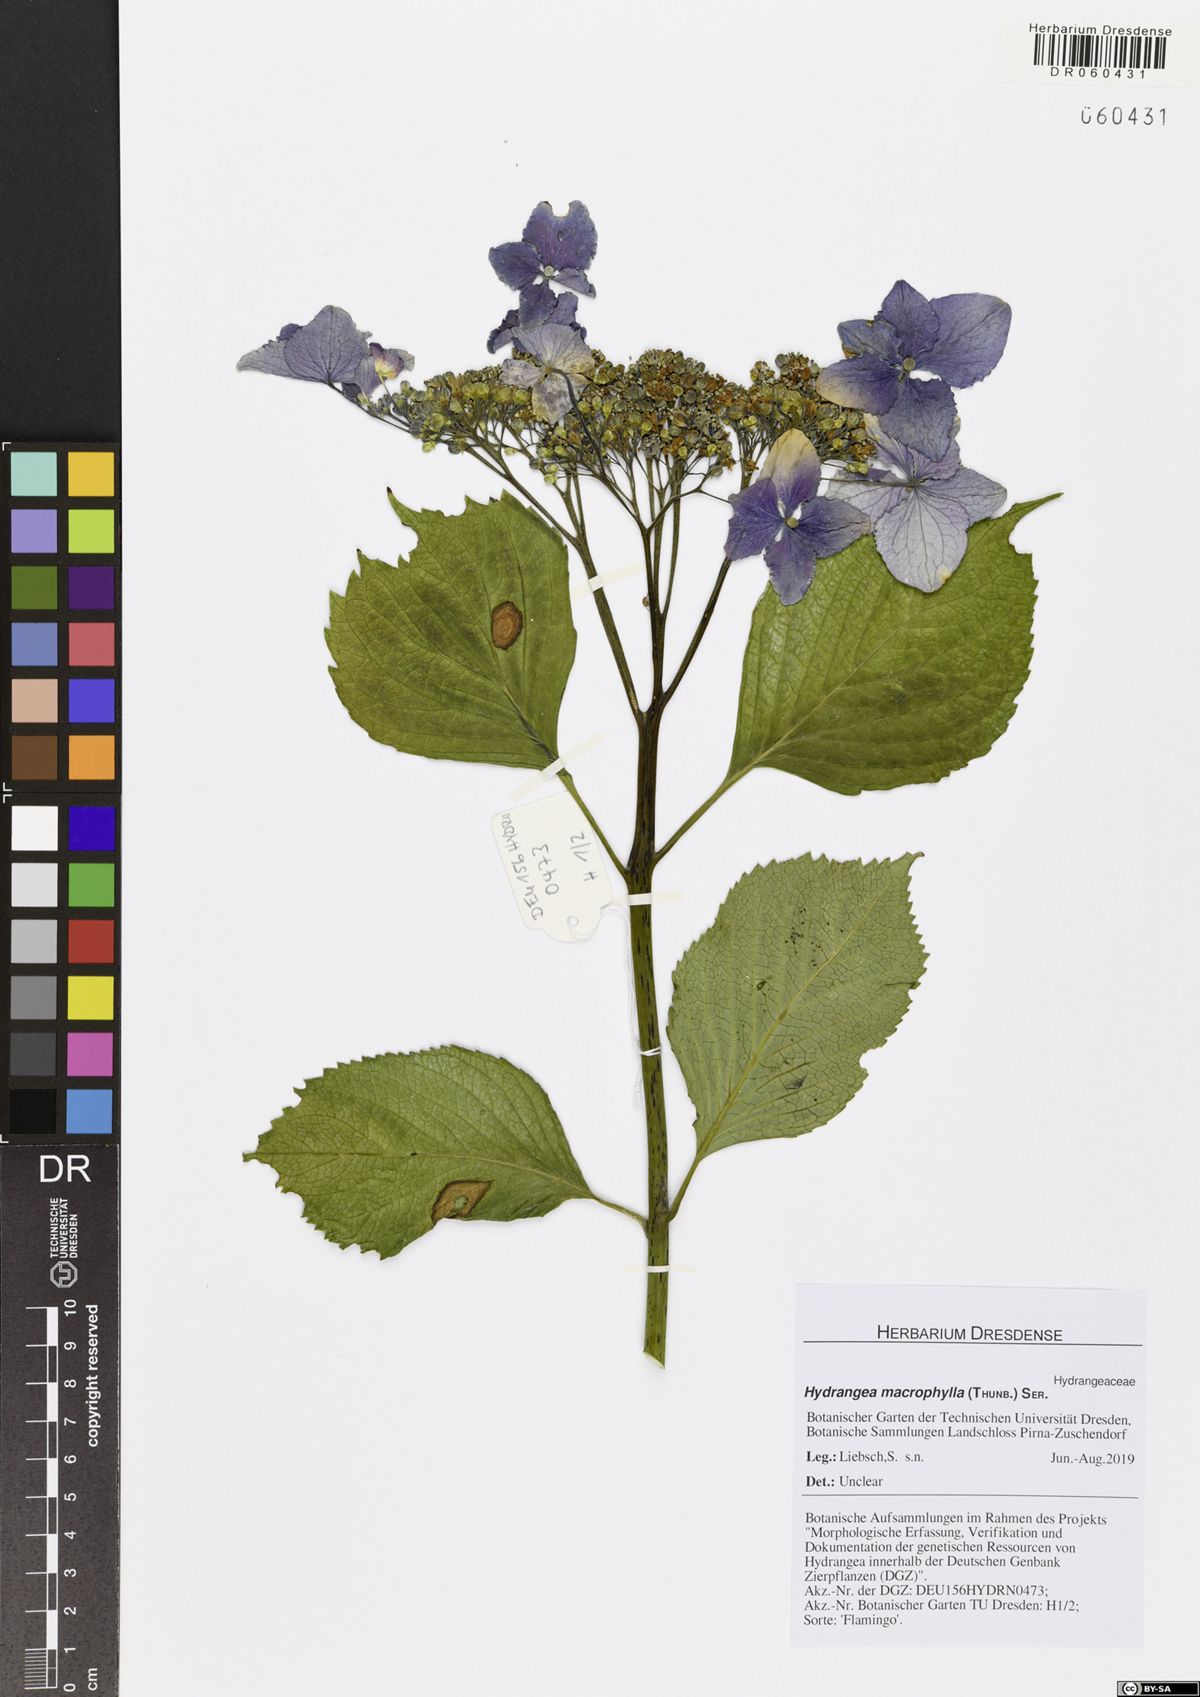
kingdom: Plantae
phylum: Tracheophyta
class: Magnoliopsida
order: Cornales
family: Hydrangeaceae
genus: Hydrangea
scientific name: Hydrangea macrophylla
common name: Hydrangea
